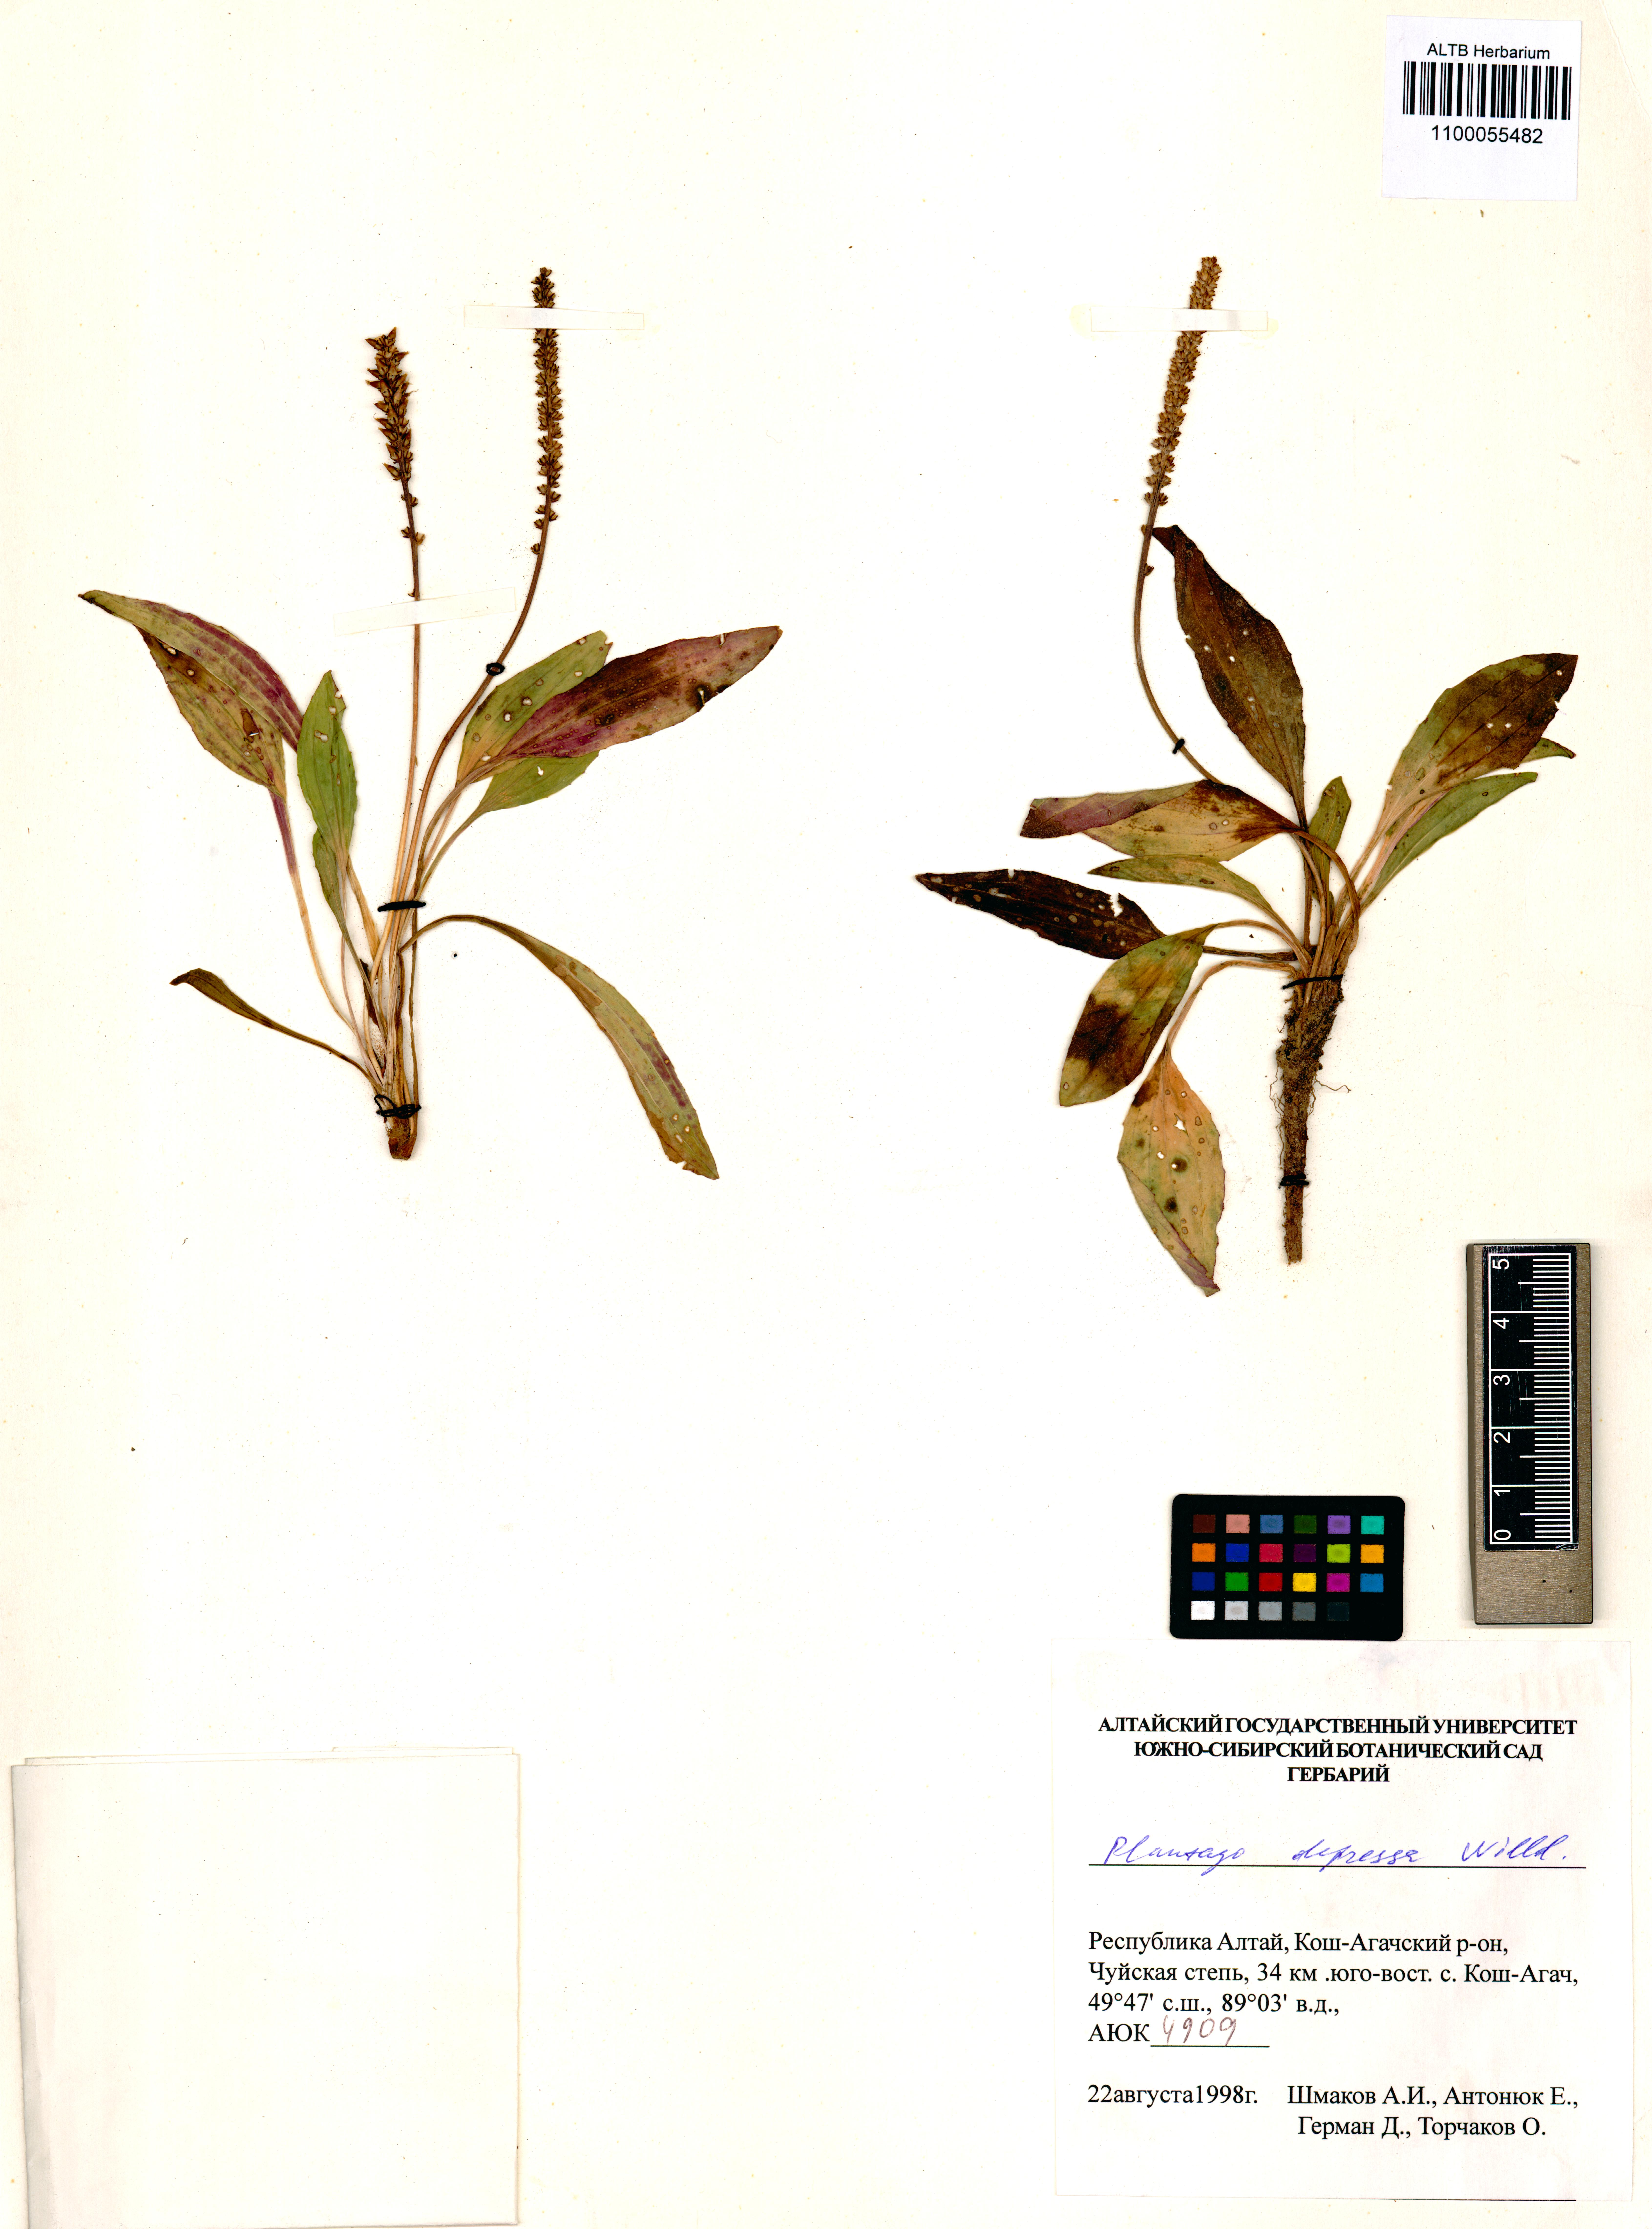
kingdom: Plantae
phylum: Tracheophyta
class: Magnoliopsida
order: Lamiales
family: Plantaginaceae
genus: Plantago
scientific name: Plantago depressa
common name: Depressed plantain
